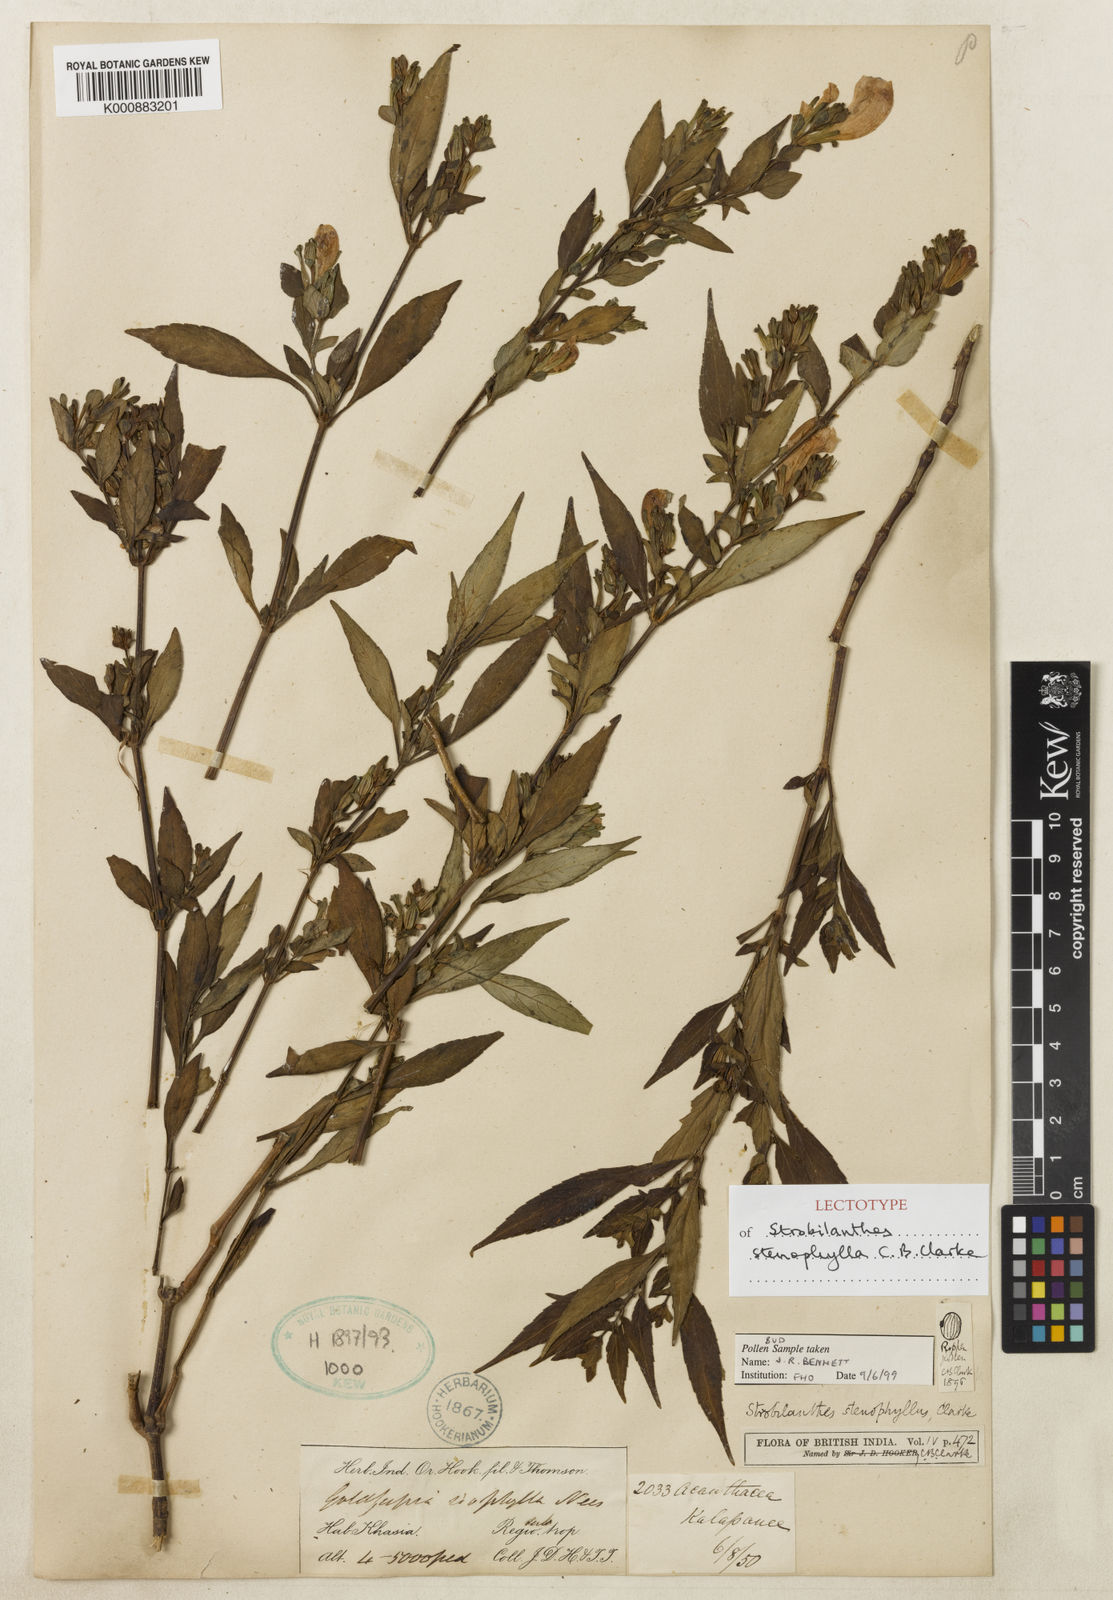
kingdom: Plantae
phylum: Tracheophyta
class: Magnoliopsida
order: Lamiales
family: Acanthaceae
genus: Strobilanthes
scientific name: Strobilanthes subnudata
